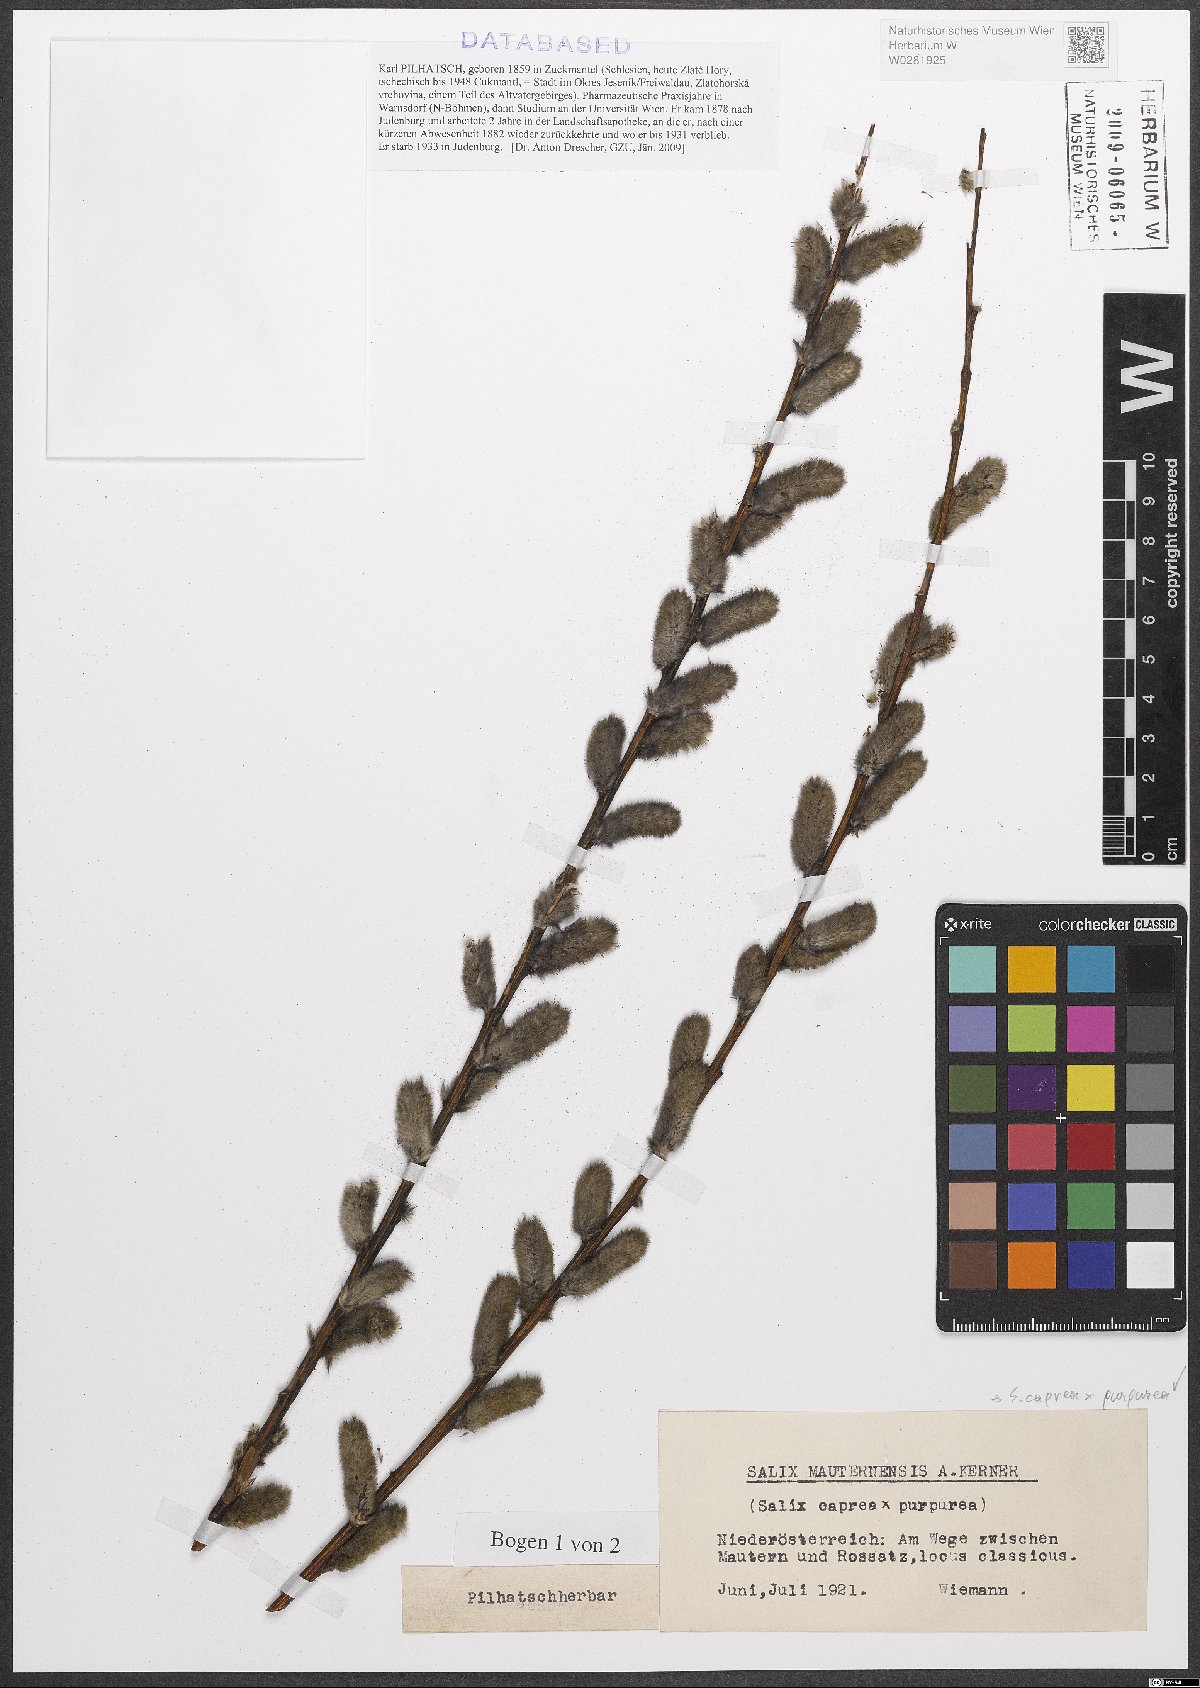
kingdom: Plantae
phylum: Tracheophyta
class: Magnoliopsida
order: Malpighiales
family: Salicaceae
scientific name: Salicaceae
